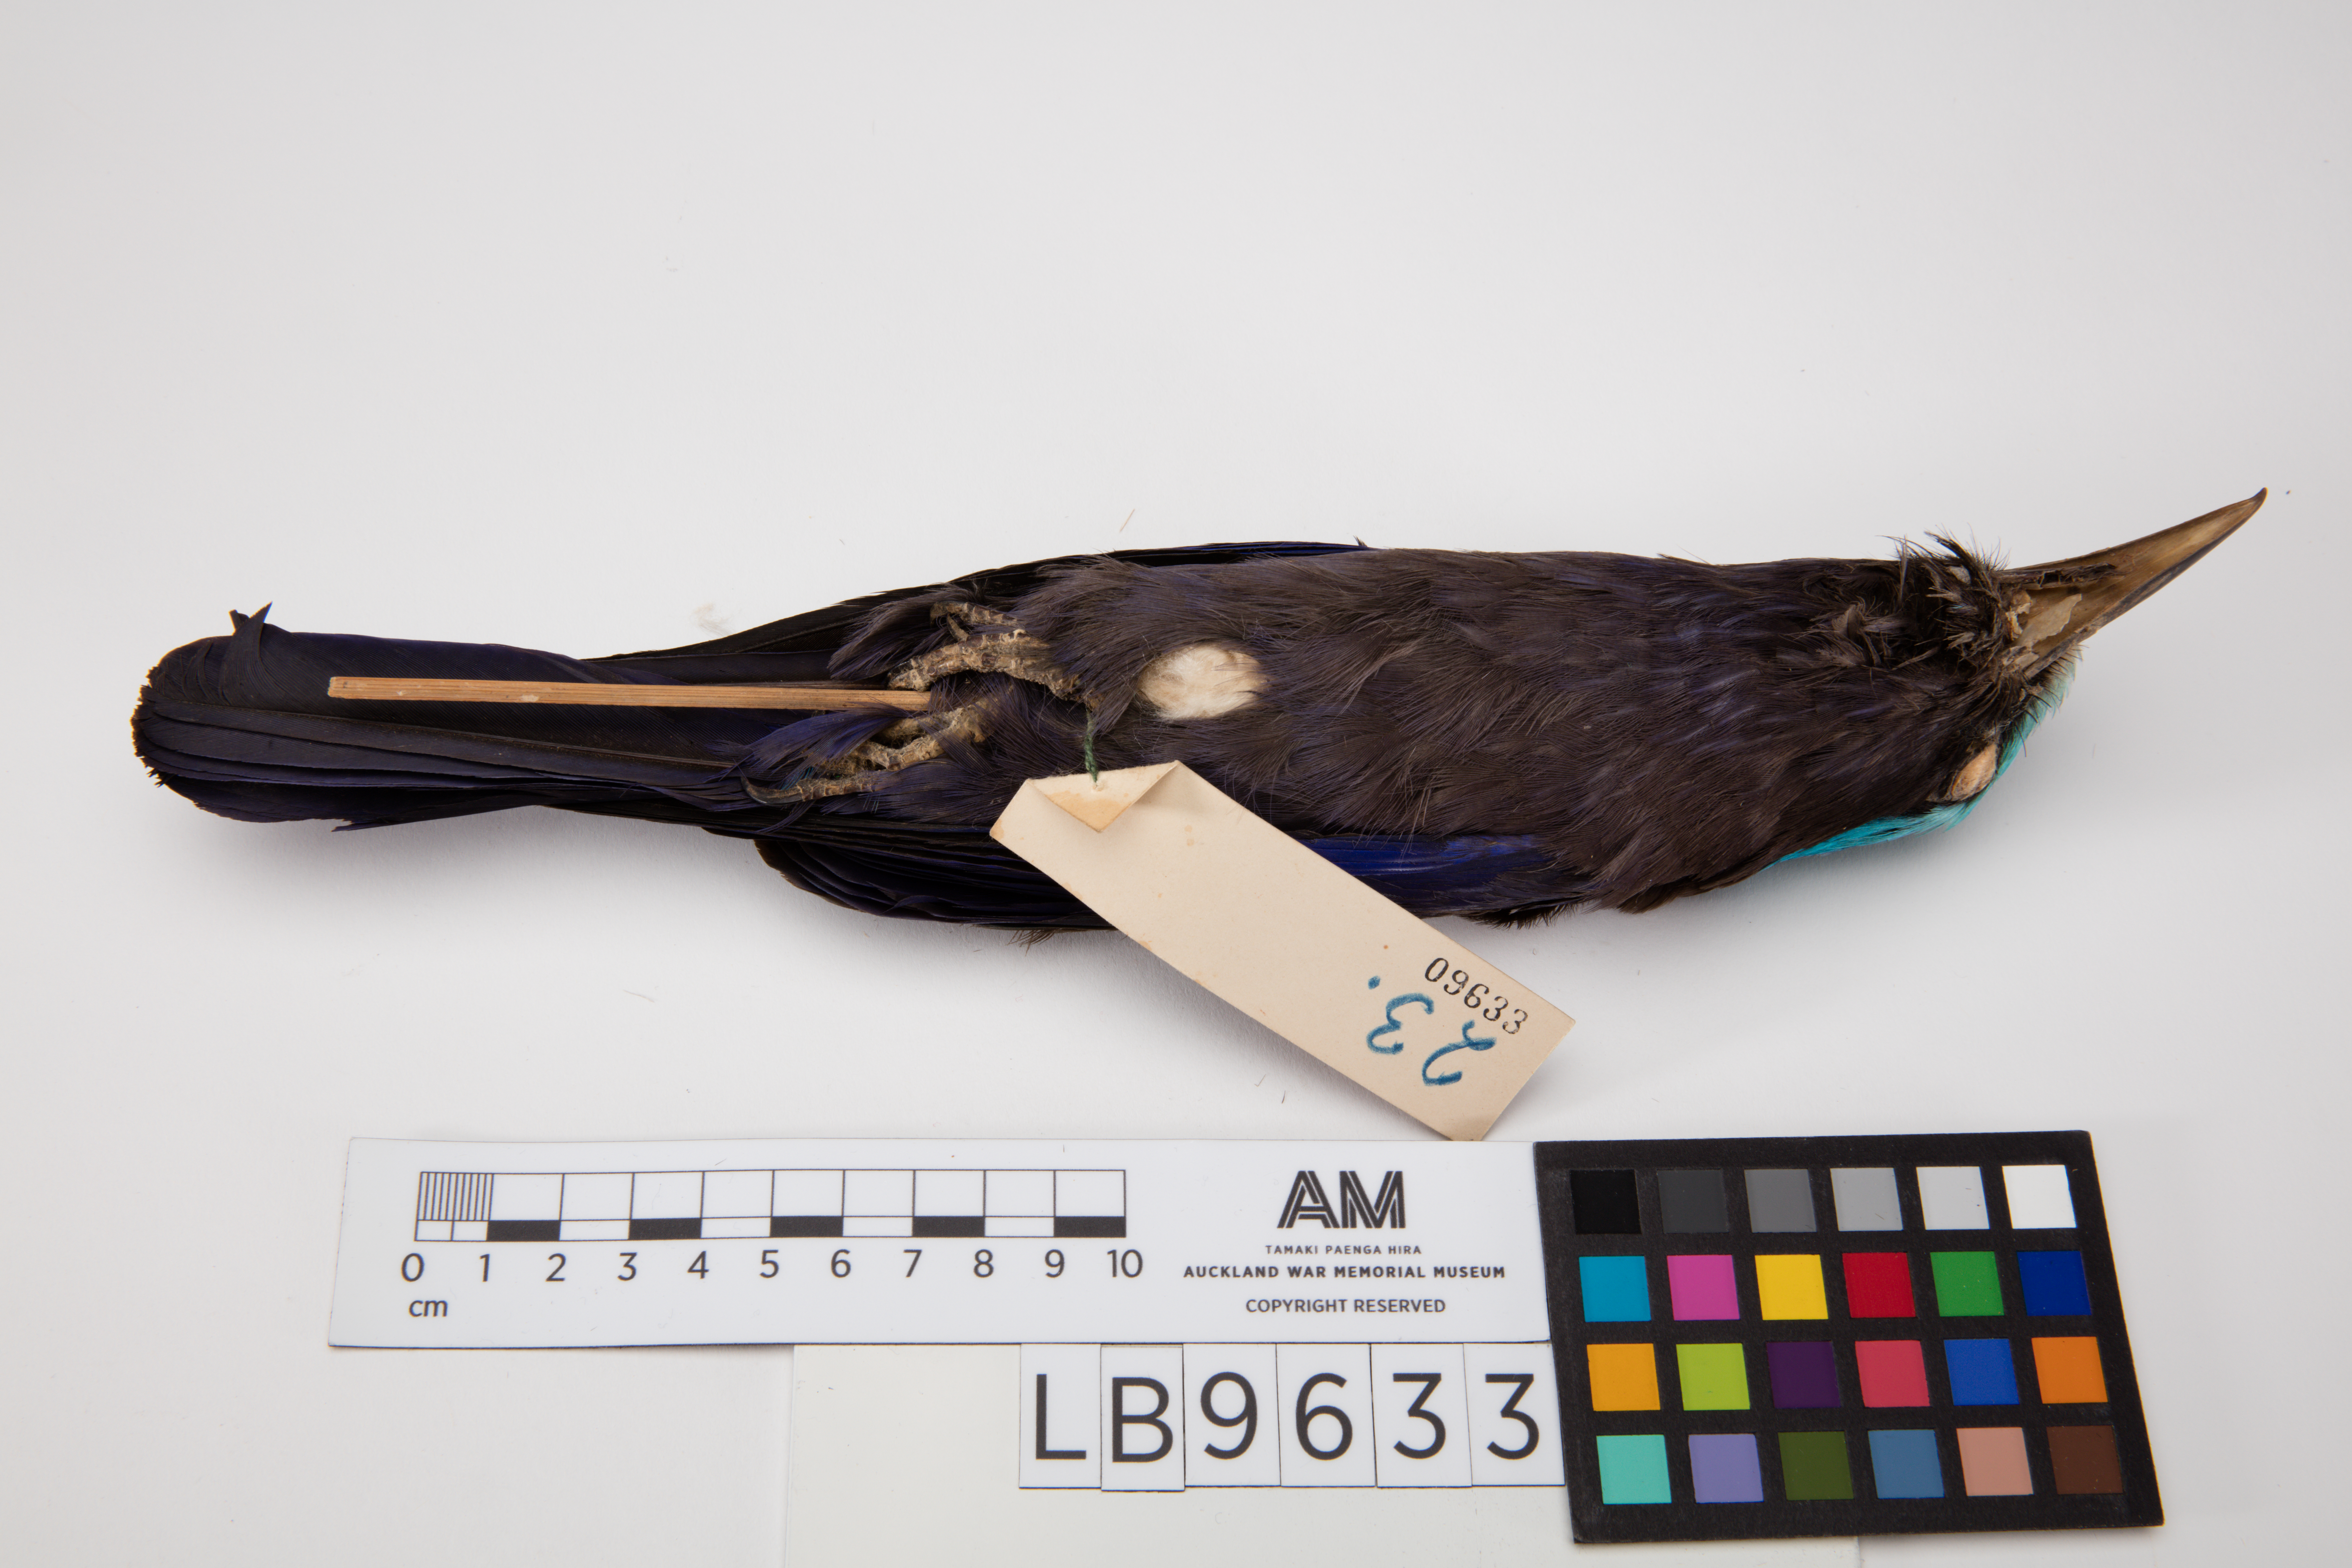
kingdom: Animalia
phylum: Chordata
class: Aves
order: Coraciiformes
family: Coraciidae
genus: Coracias
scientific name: Coracias temminckii
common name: Purple-winged roller
